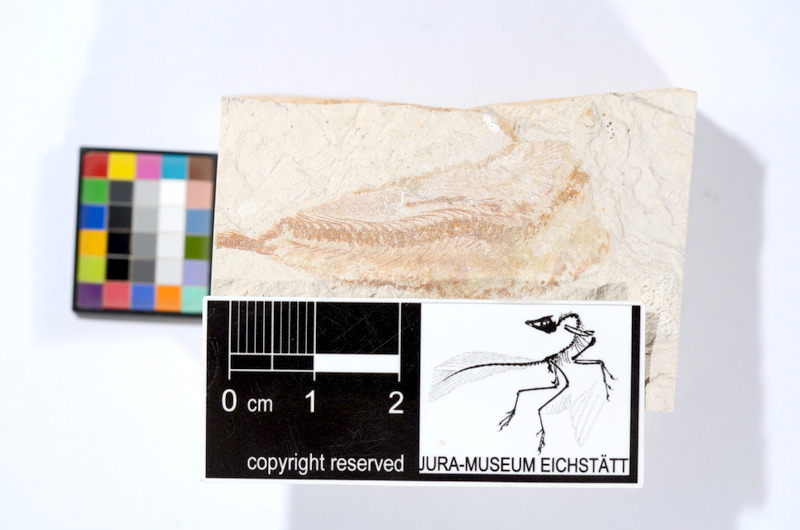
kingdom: Animalia
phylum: Chordata
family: Ascalaboidae
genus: Tharsis
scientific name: Tharsis dubius
